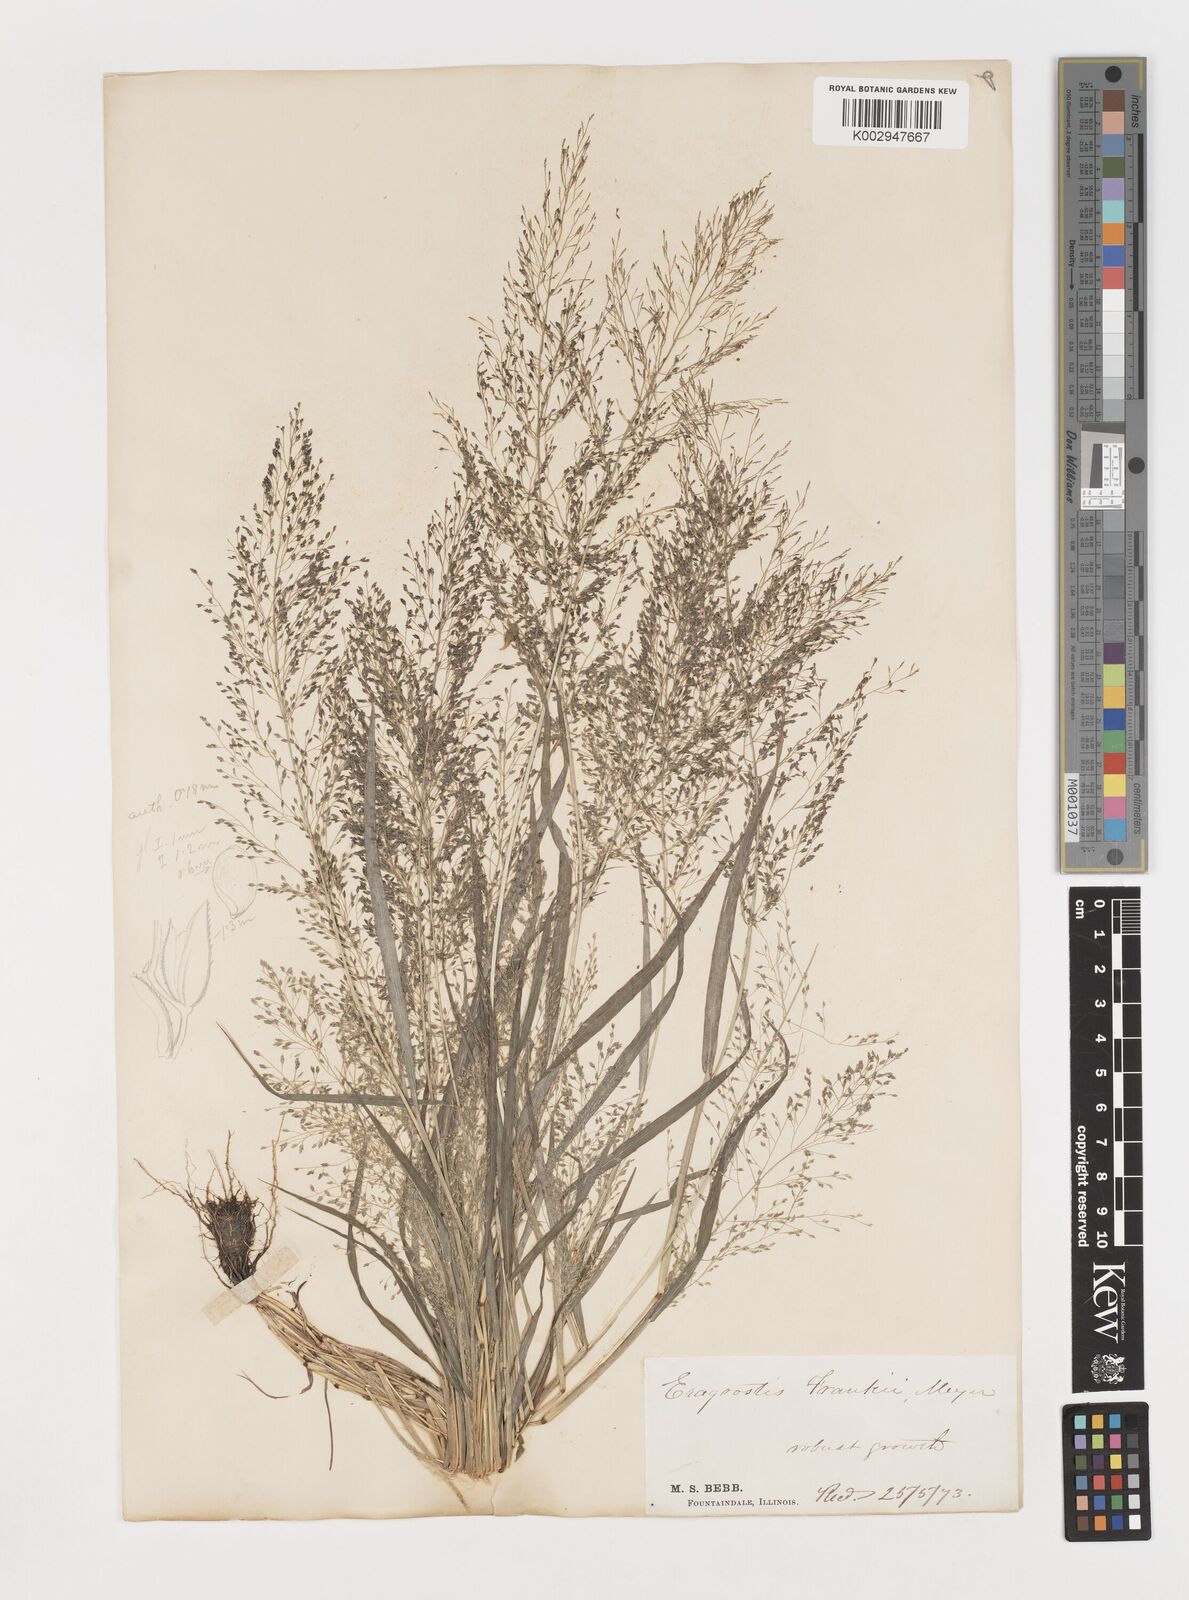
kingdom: Plantae
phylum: Tracheophyta
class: Liliopsida
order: Poales
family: Poaceae
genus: Eragrostis
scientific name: Eragrostis frankii
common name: Frank's lovegrass
